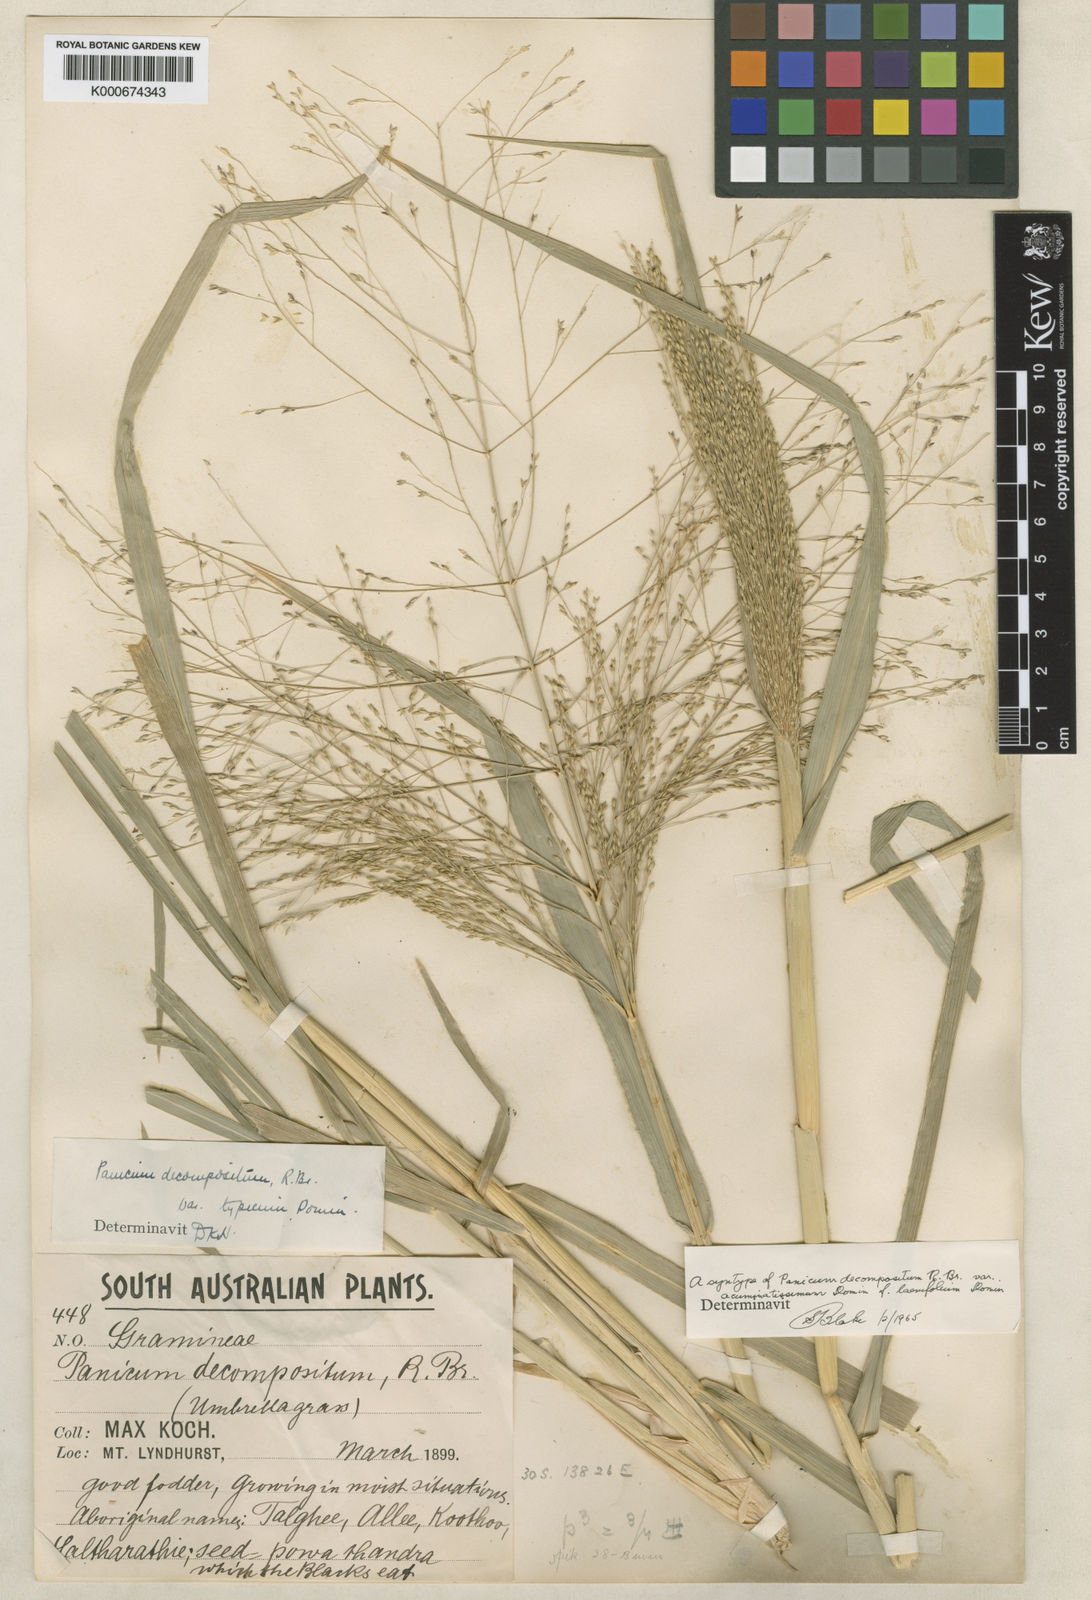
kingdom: Plantae
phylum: Tracheophyta
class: Liliopsida
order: Poales
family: Poaceae
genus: Panicum
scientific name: Panicum decompositum
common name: Australian millet
